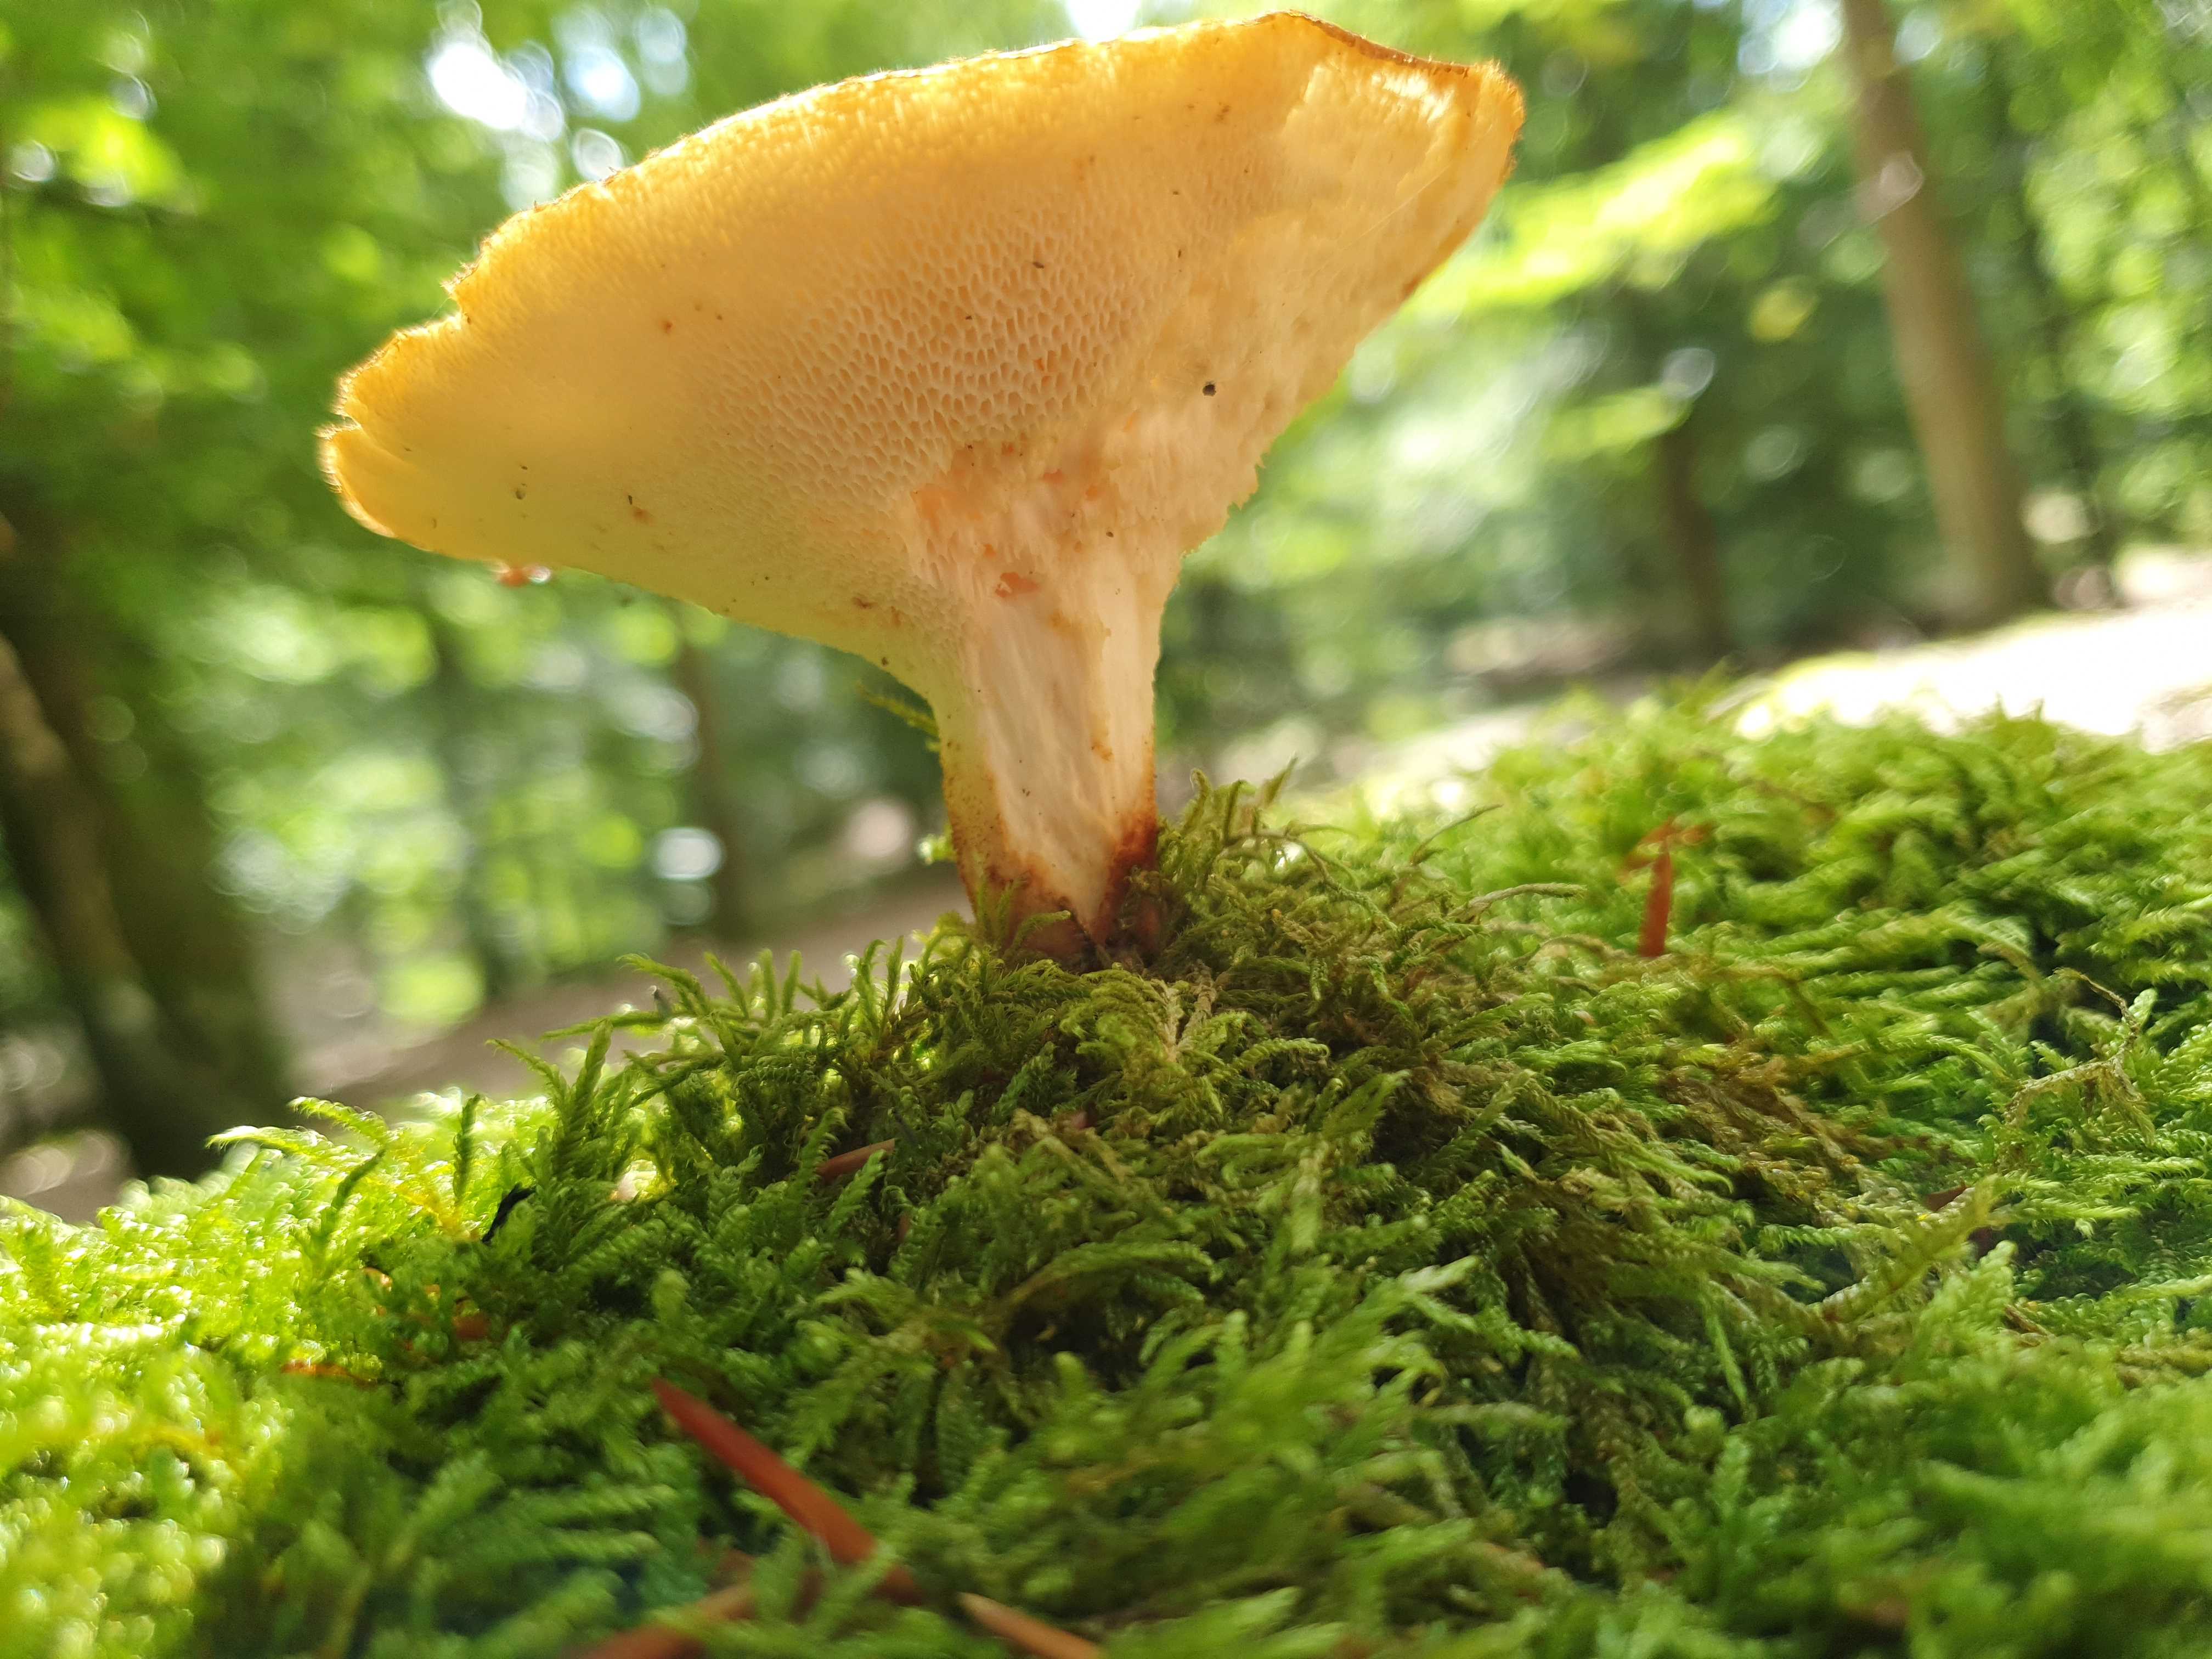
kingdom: Fungi
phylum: Basidiomycota
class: Agaricomycetes
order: Polyporales
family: Polyporaceae
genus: Polyporus
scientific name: Polyporus tuberaster
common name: knoldet stilkporesvamp
